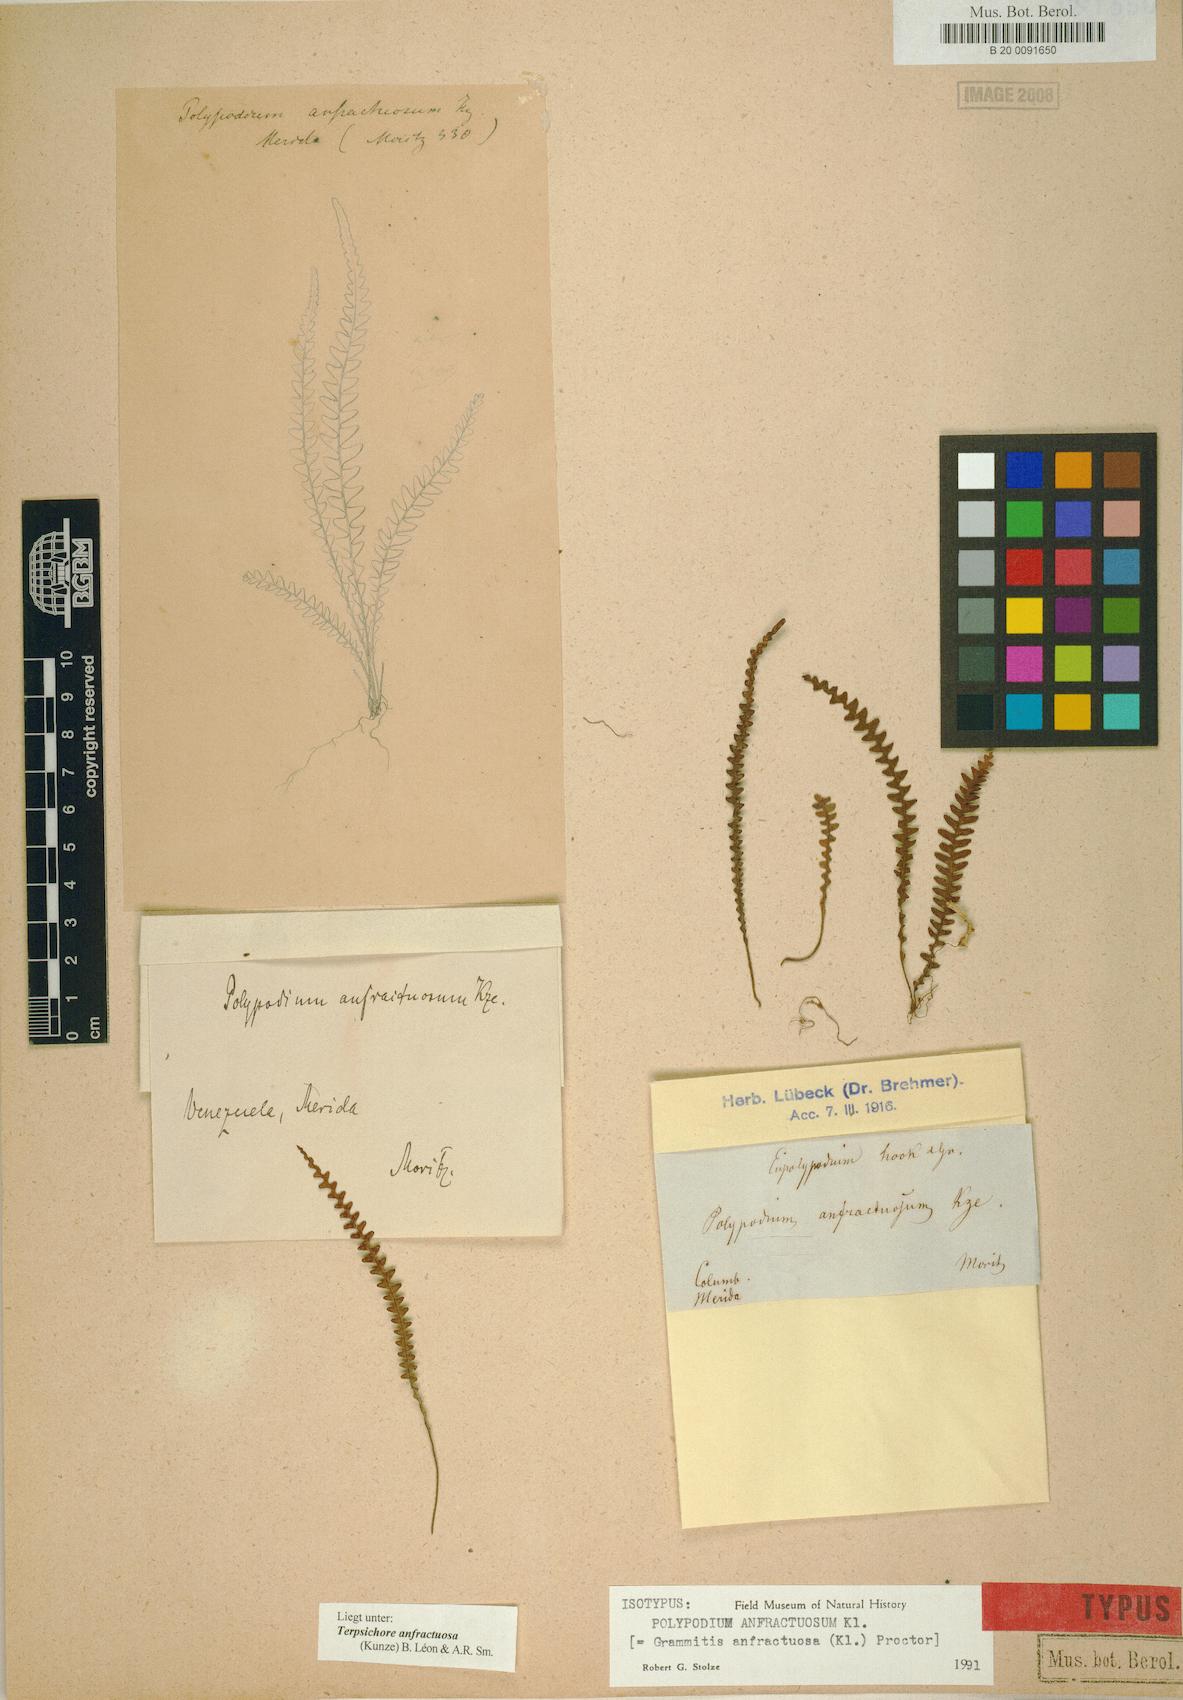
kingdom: Plantae
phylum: Tracheophyta
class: Polypodiopsida
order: Polypodiales
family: Polypodiaceae
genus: Ascogrammitis
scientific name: Ascogrammitis anfractuosa
